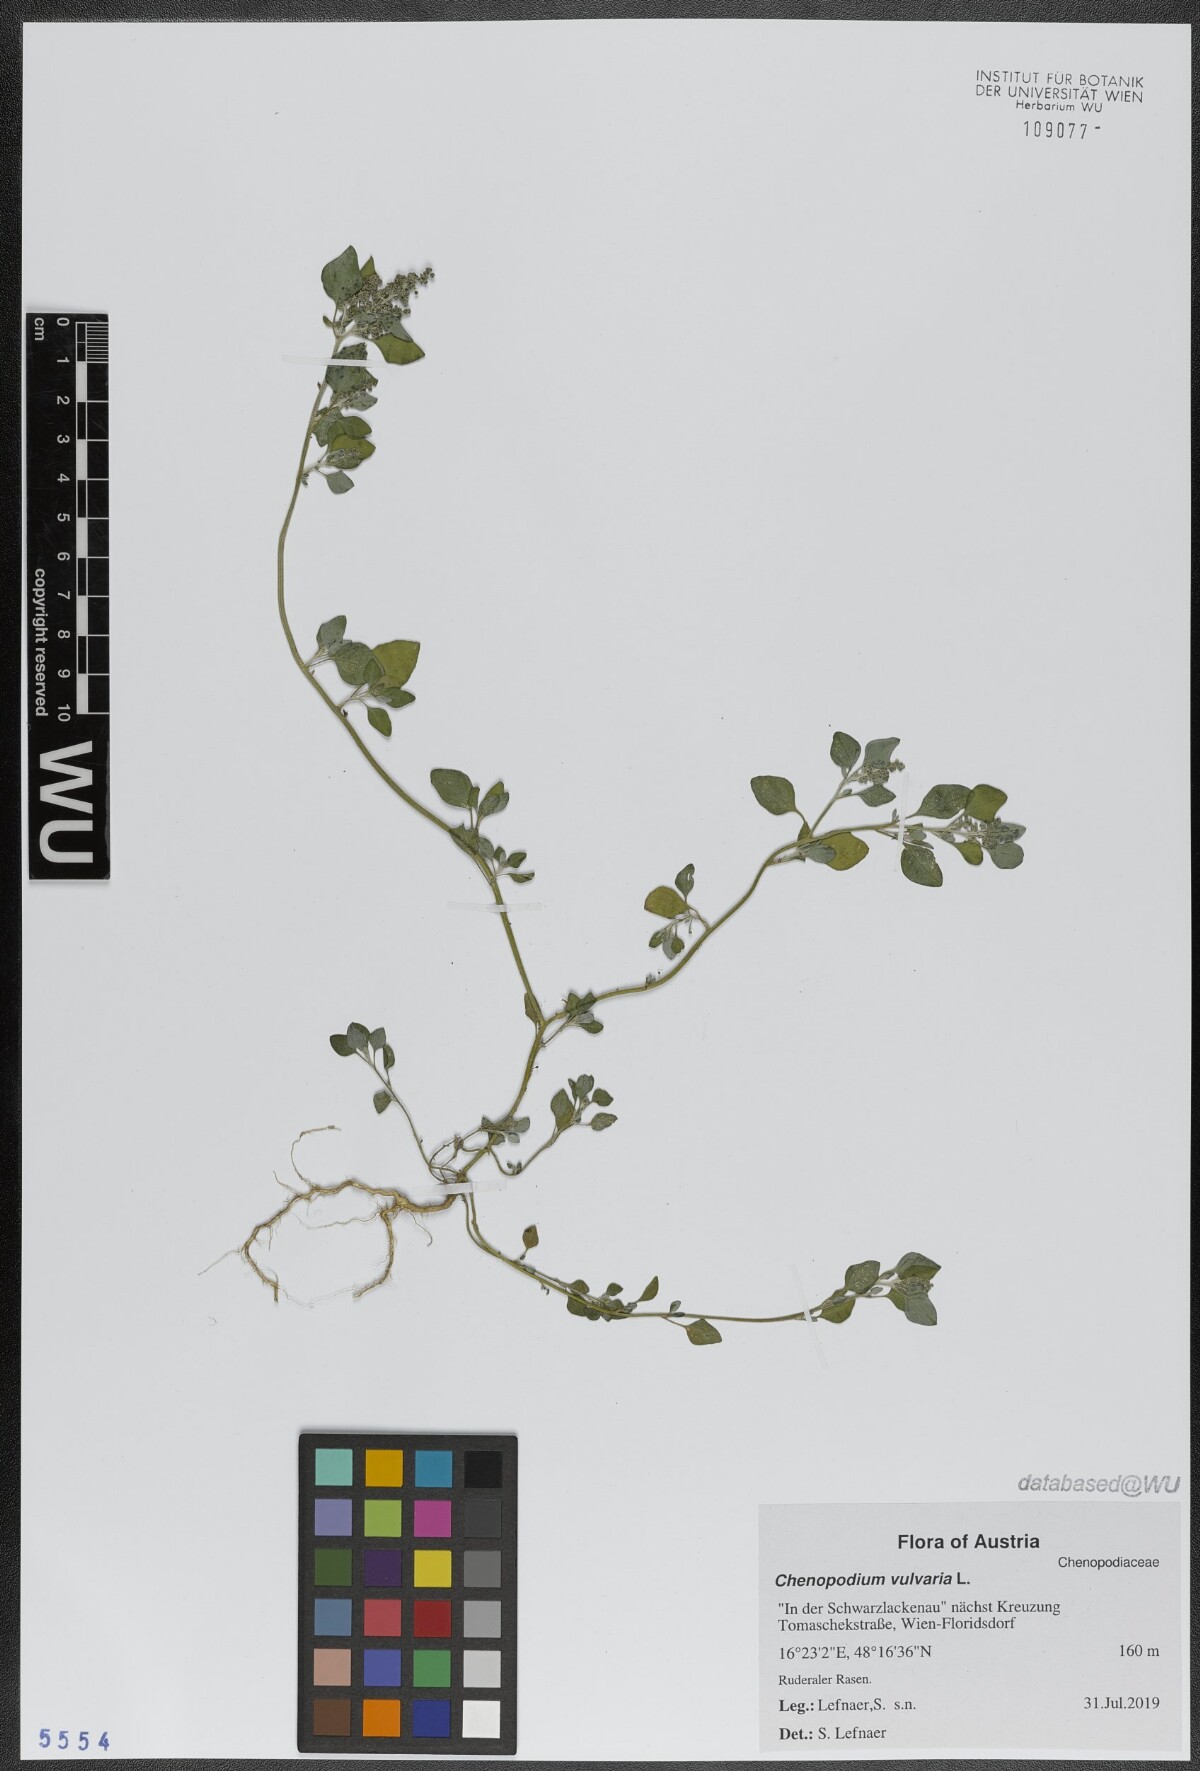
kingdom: Plantae
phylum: Tracheophyta
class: Magnoliopsida
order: Caryophyllales
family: Amaranthaceae
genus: Chenopodium
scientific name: Chenopodium vulvaria
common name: Stinking goosefoot
